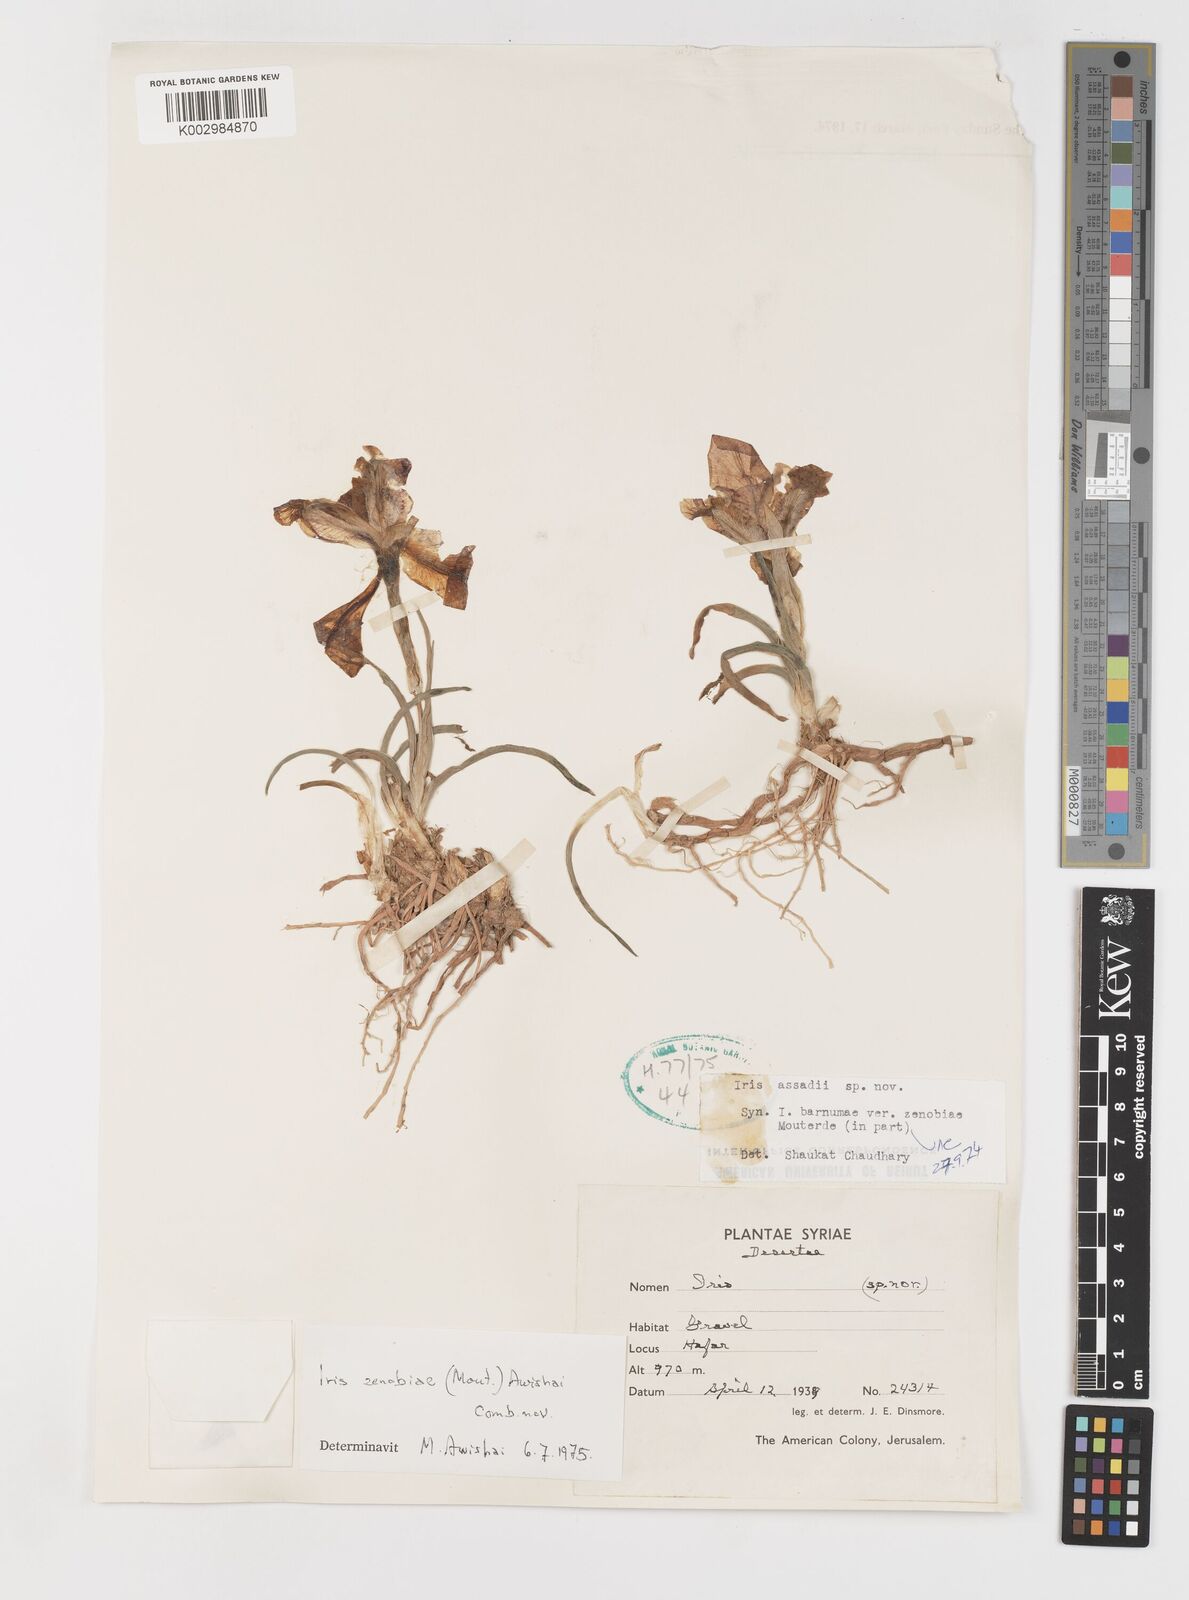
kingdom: Plantae
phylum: Tracheophyta
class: Liliopsida
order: Asparagales
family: Iridaceae
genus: Iris
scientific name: Iris assadiana
